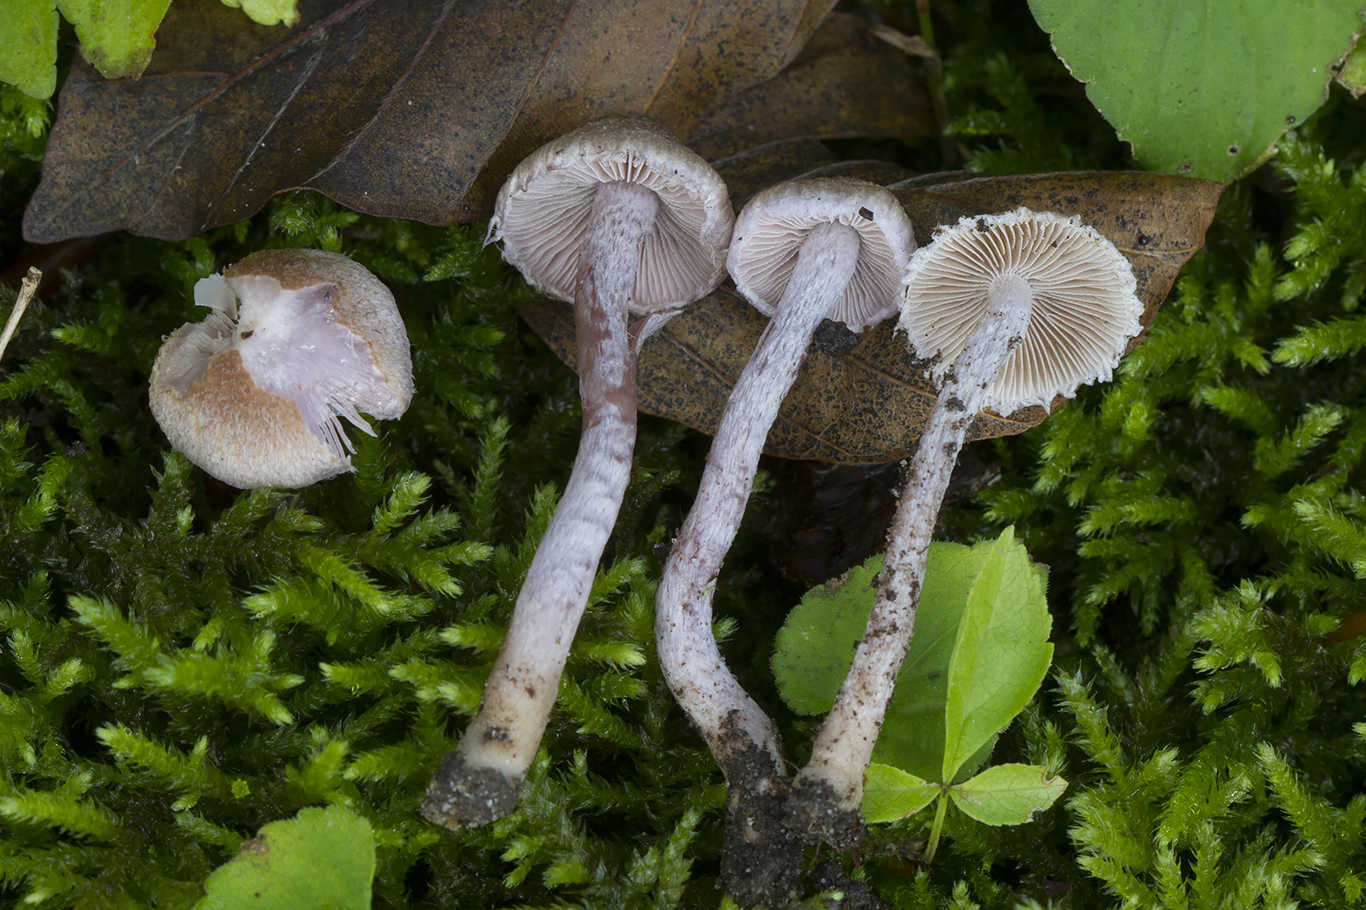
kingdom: Fungi
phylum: Basidiomycota
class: Agaricomycetes
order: Agaricales
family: Inocybaceae
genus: Inocybe
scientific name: Inocybe griseolilacina
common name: lillagrå trævlhat
